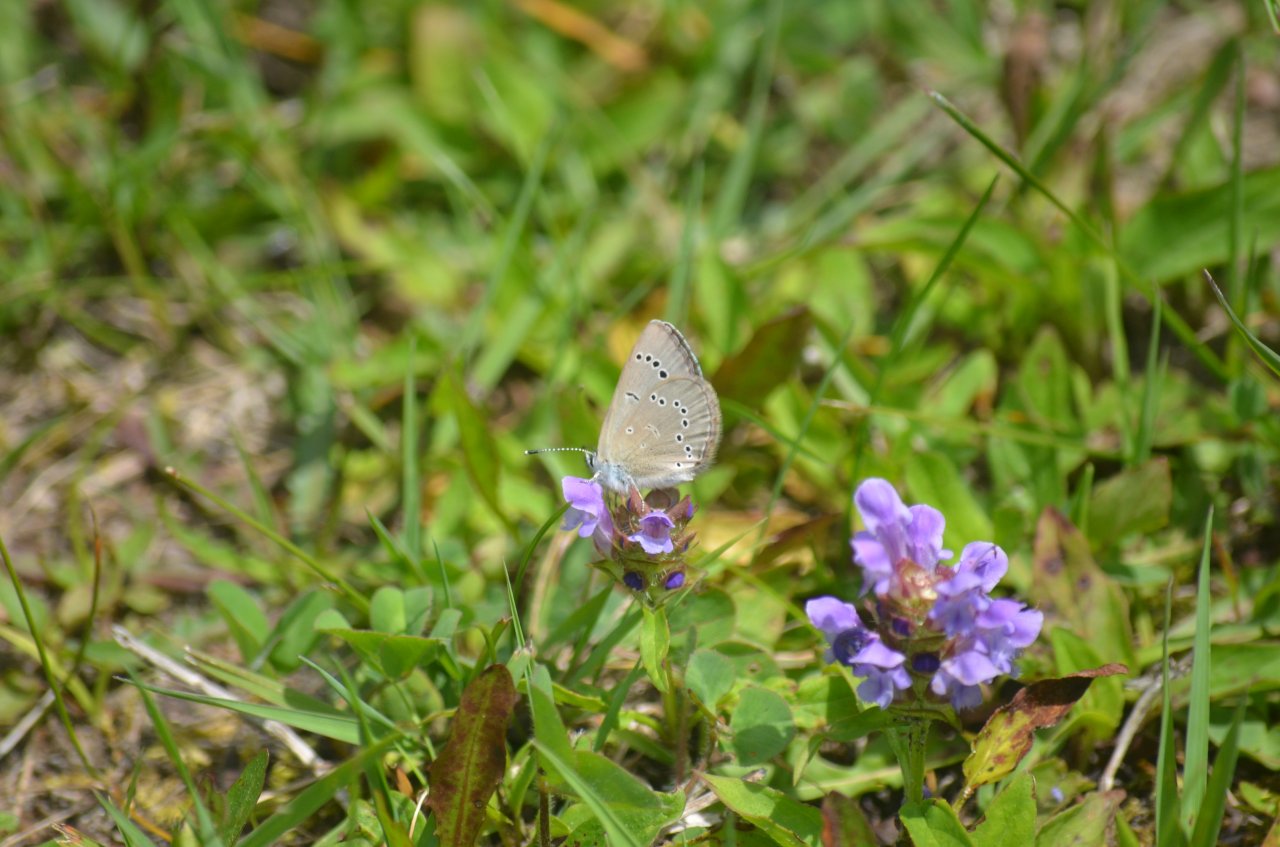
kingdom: Animalia
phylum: Arthropoda
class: Insecta
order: Lepidoptera
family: Lycaenidae
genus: Glaucopsyche
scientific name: Glaucopsyche lygdamus
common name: Silvery Blue
